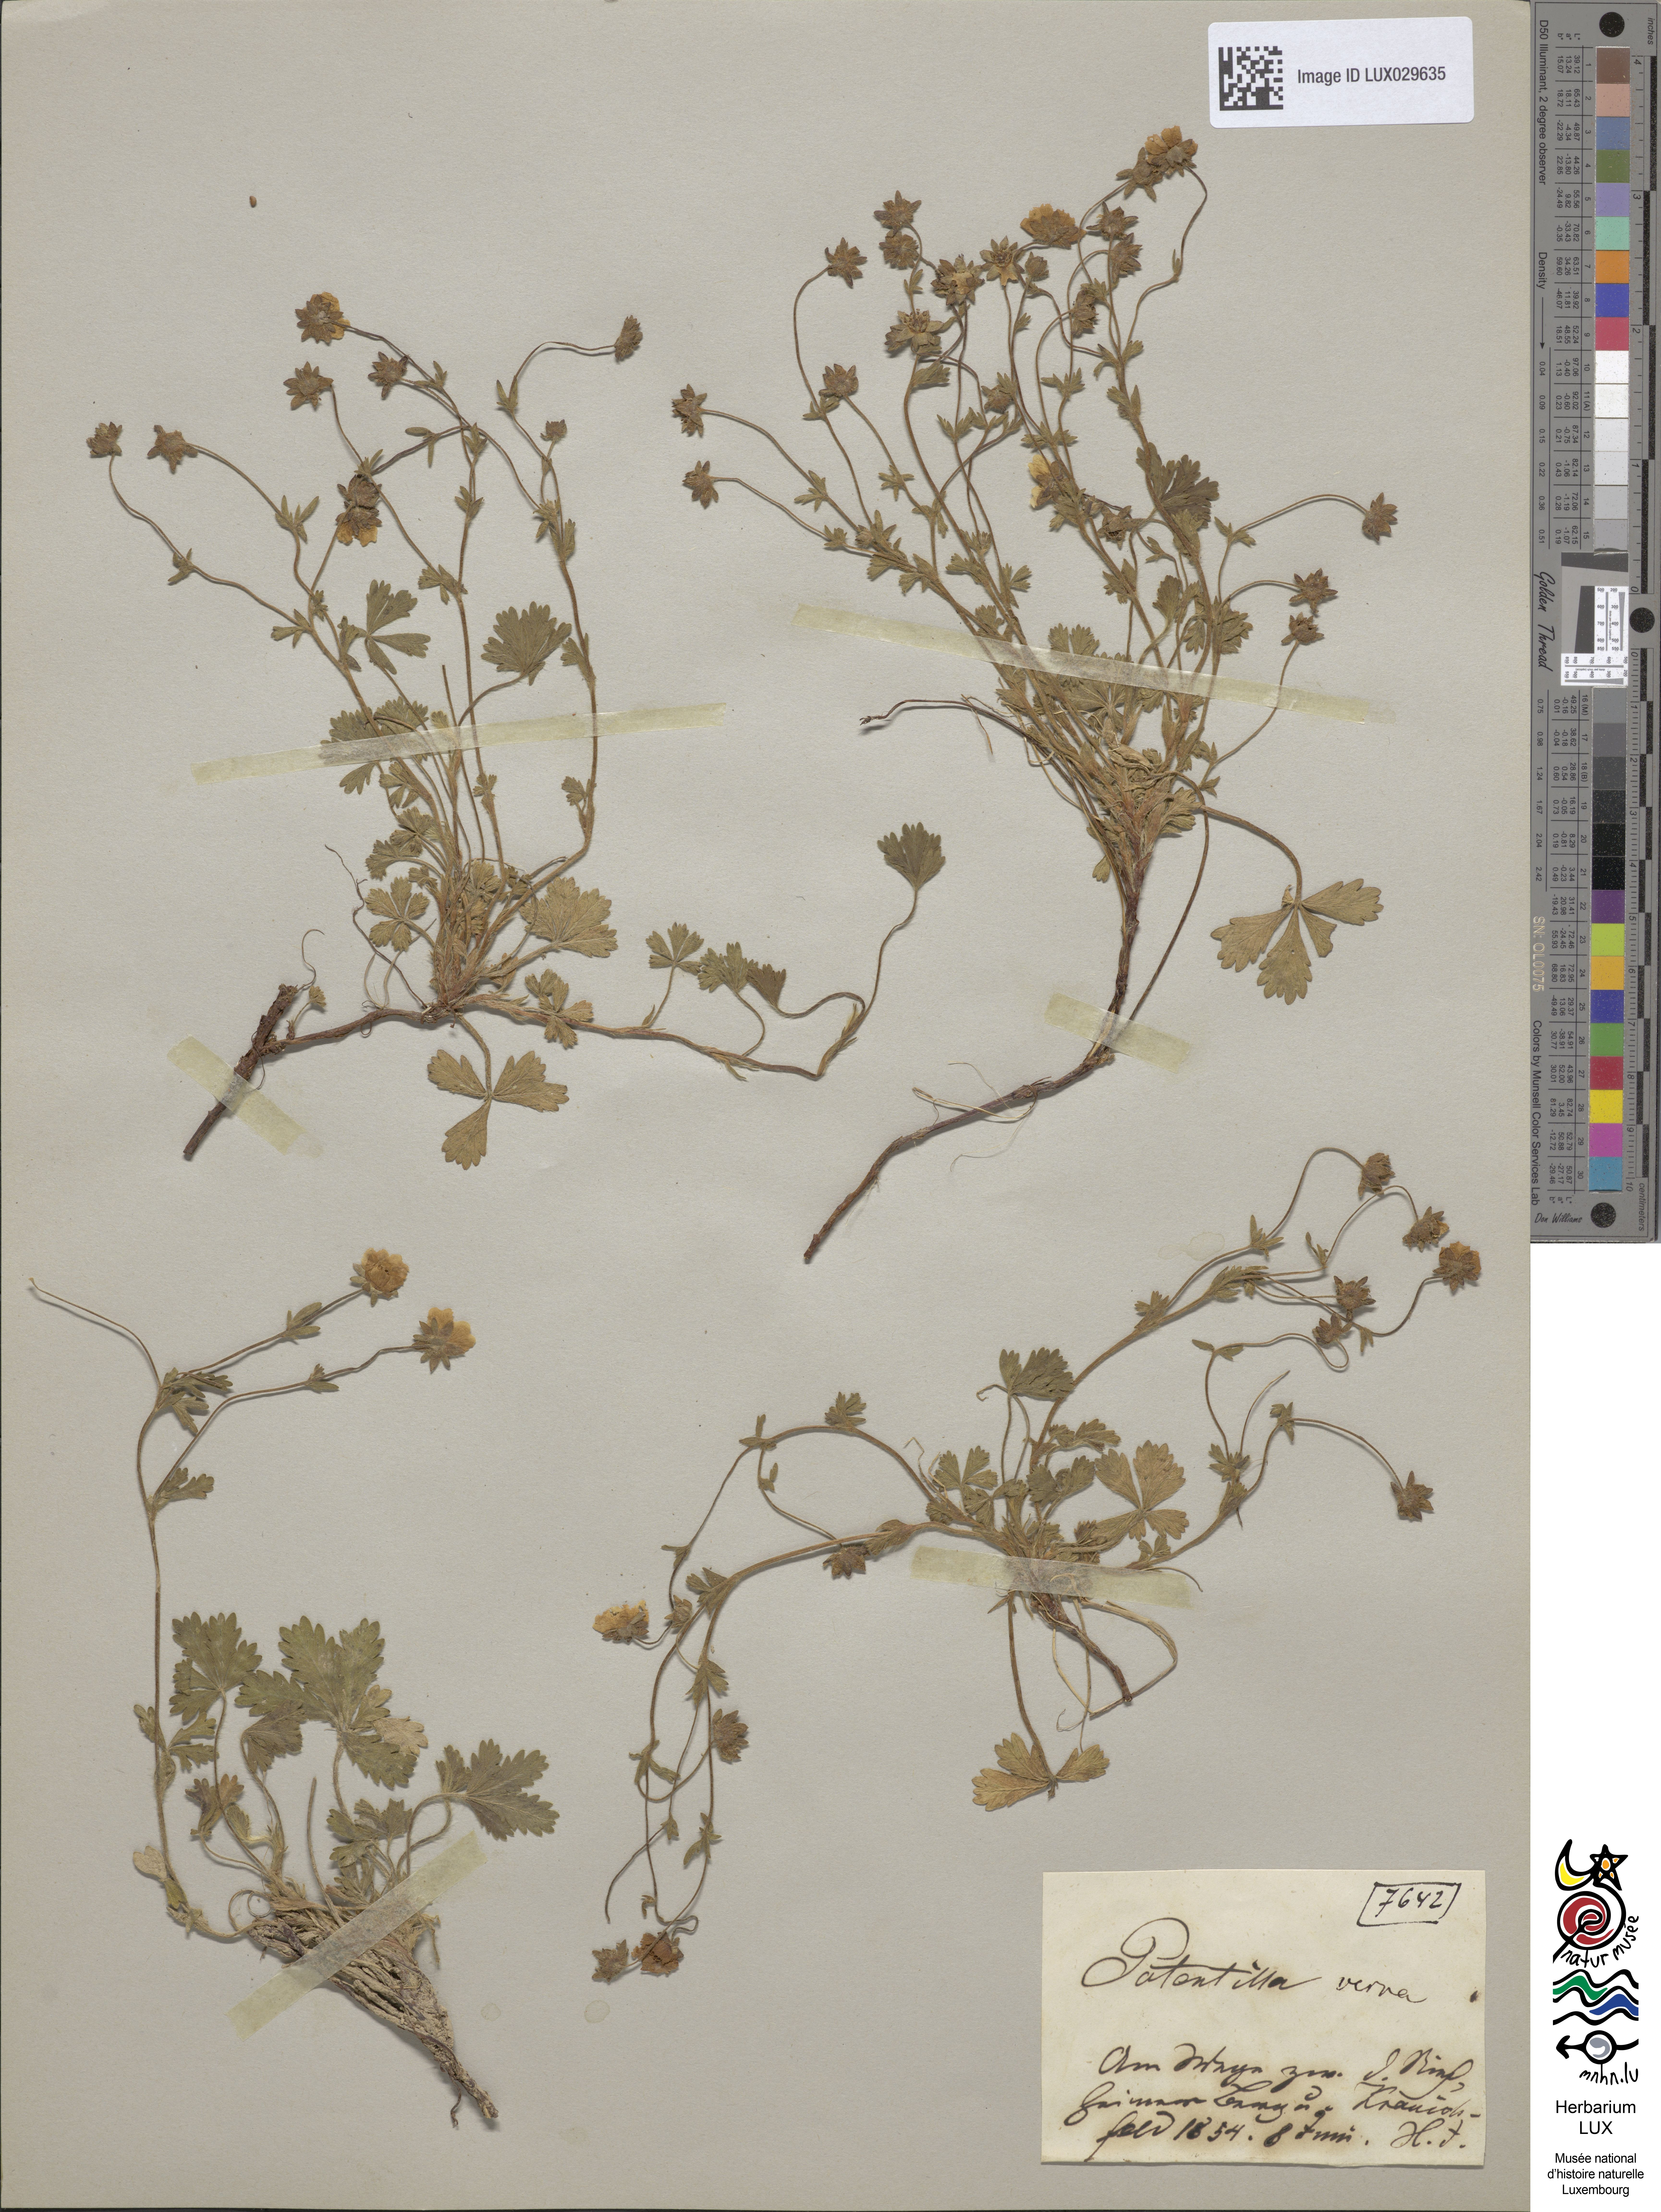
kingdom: Plantae
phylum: Tracheophyta
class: Magnoliopsida
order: Rosales
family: Rosaceae
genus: Potentilla
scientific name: Potentilla verna
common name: Spring cinquefoil
